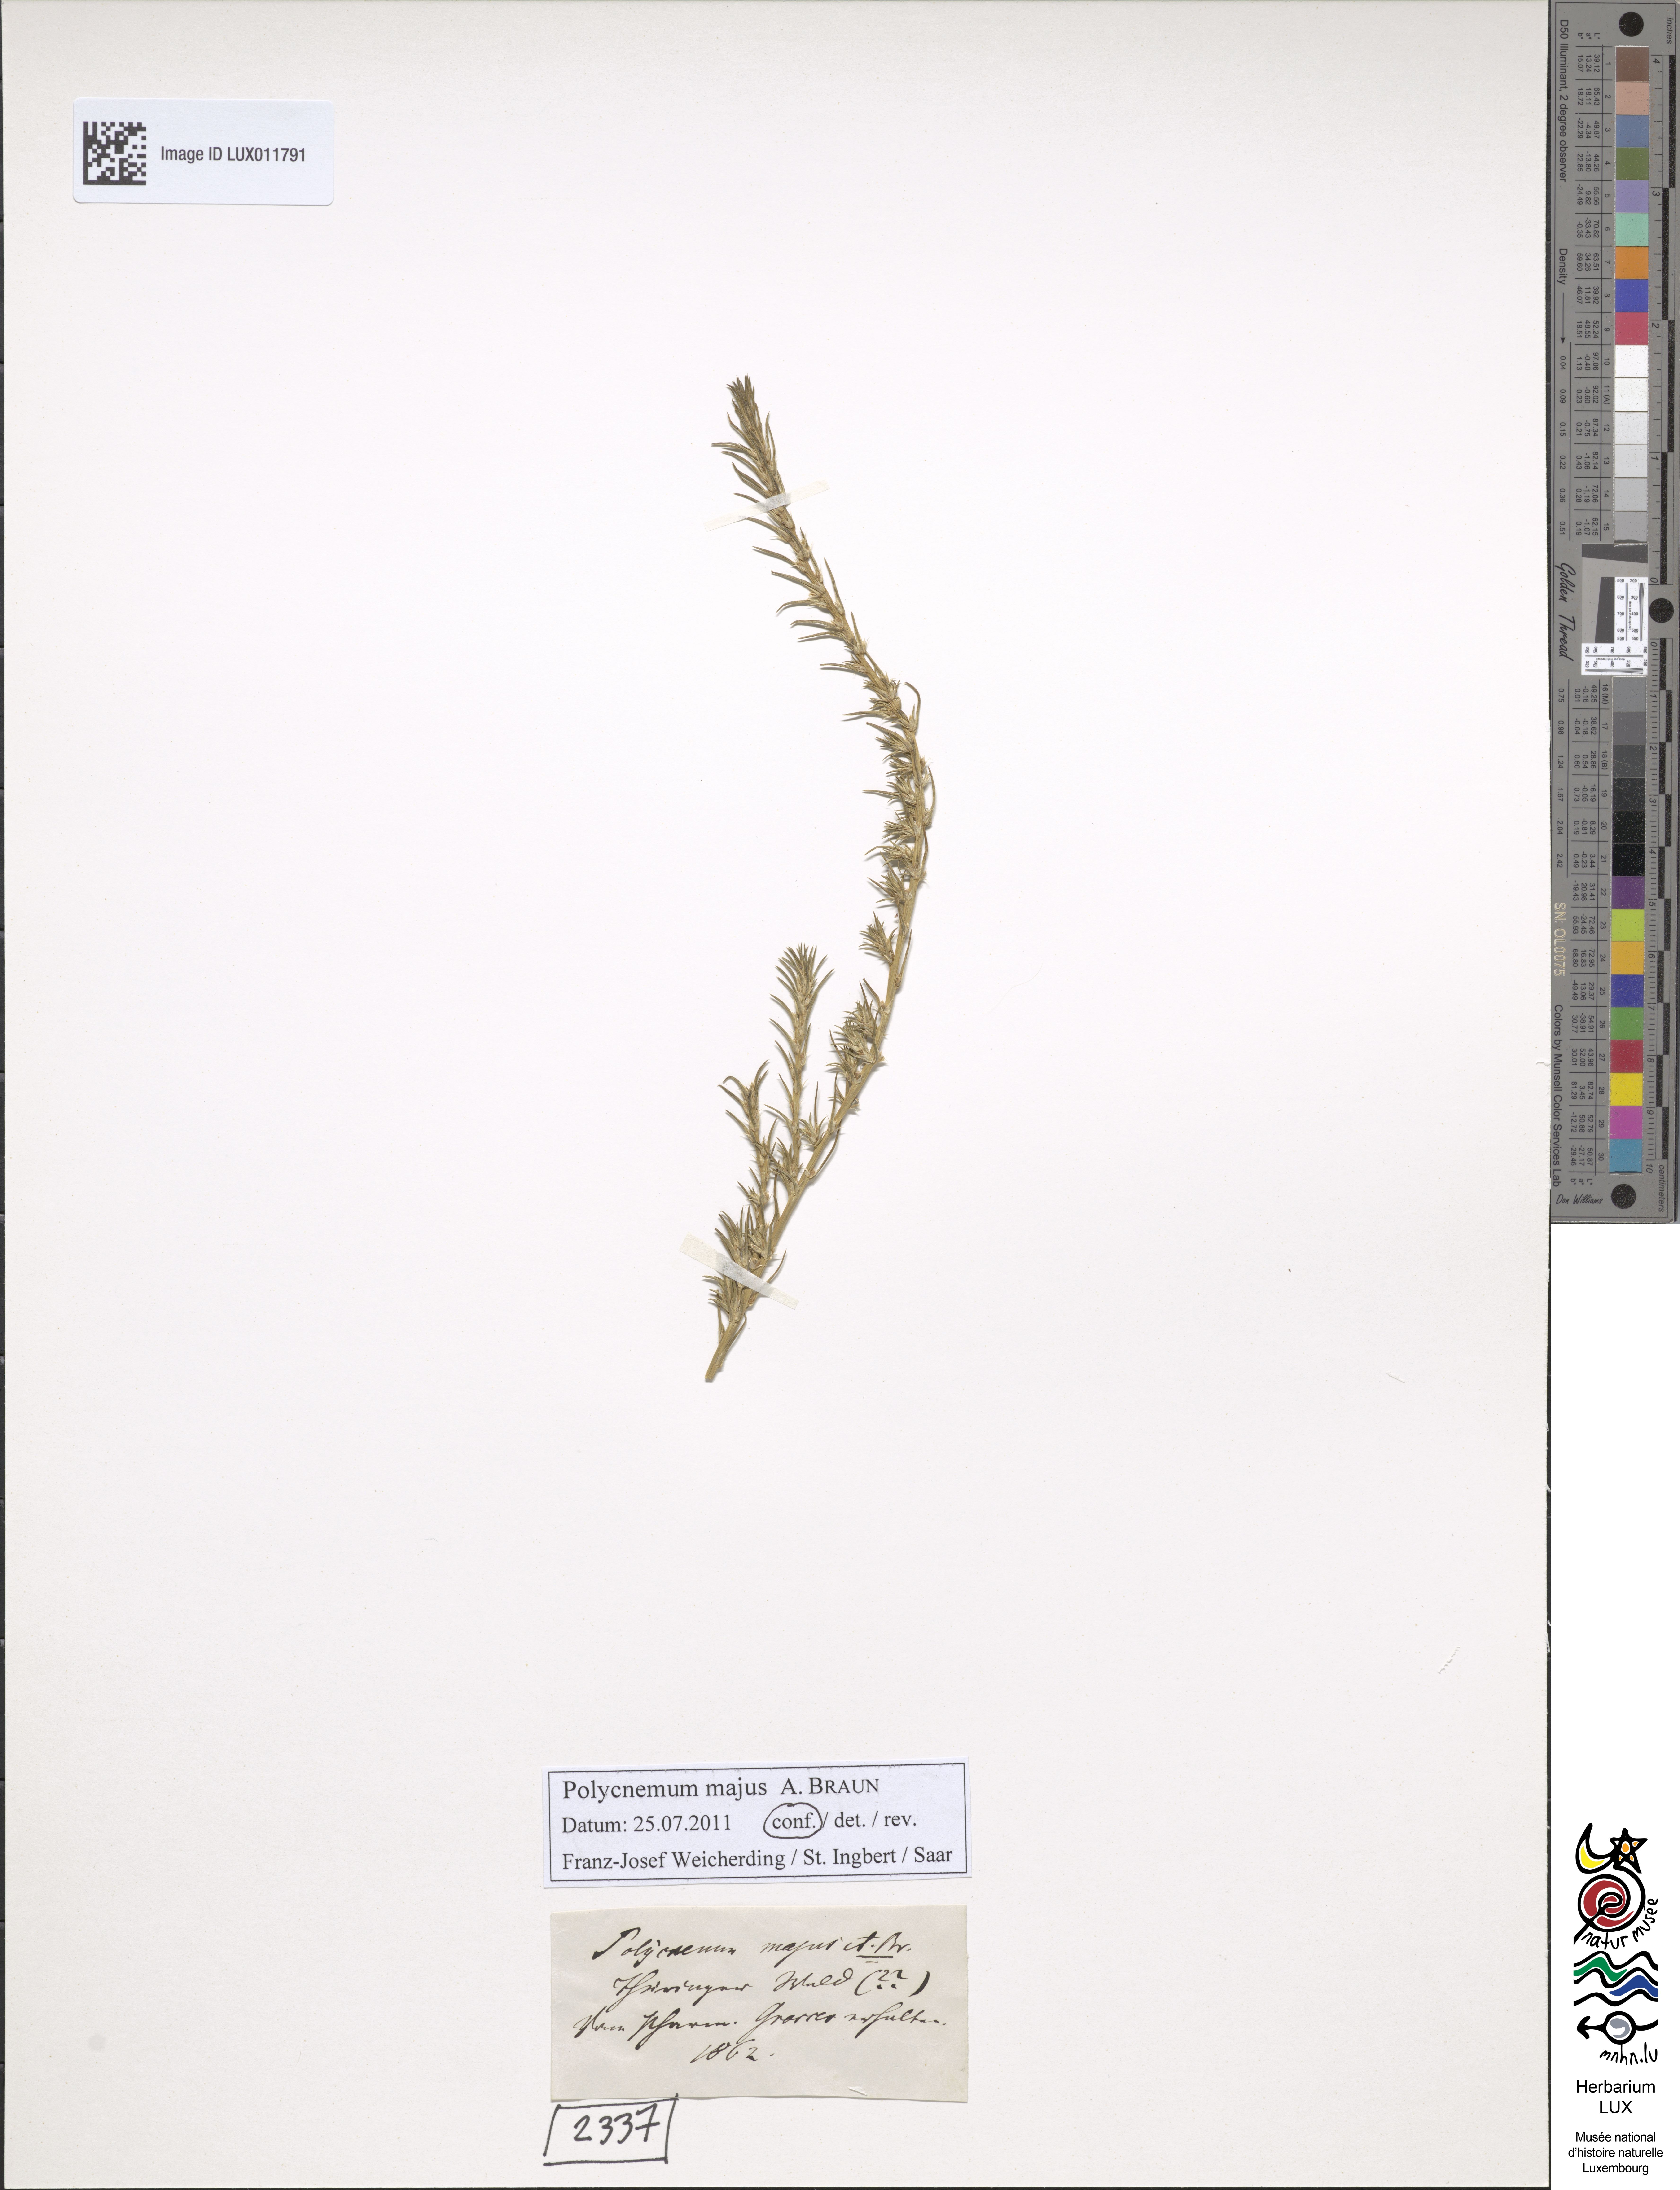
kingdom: Plantae
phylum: Tracheophyta
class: Magnoliopsida
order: Caryophyllales
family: Amaranthaceae
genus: Polycnemum
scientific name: Polycnemum majus
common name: Giant needleleaf
